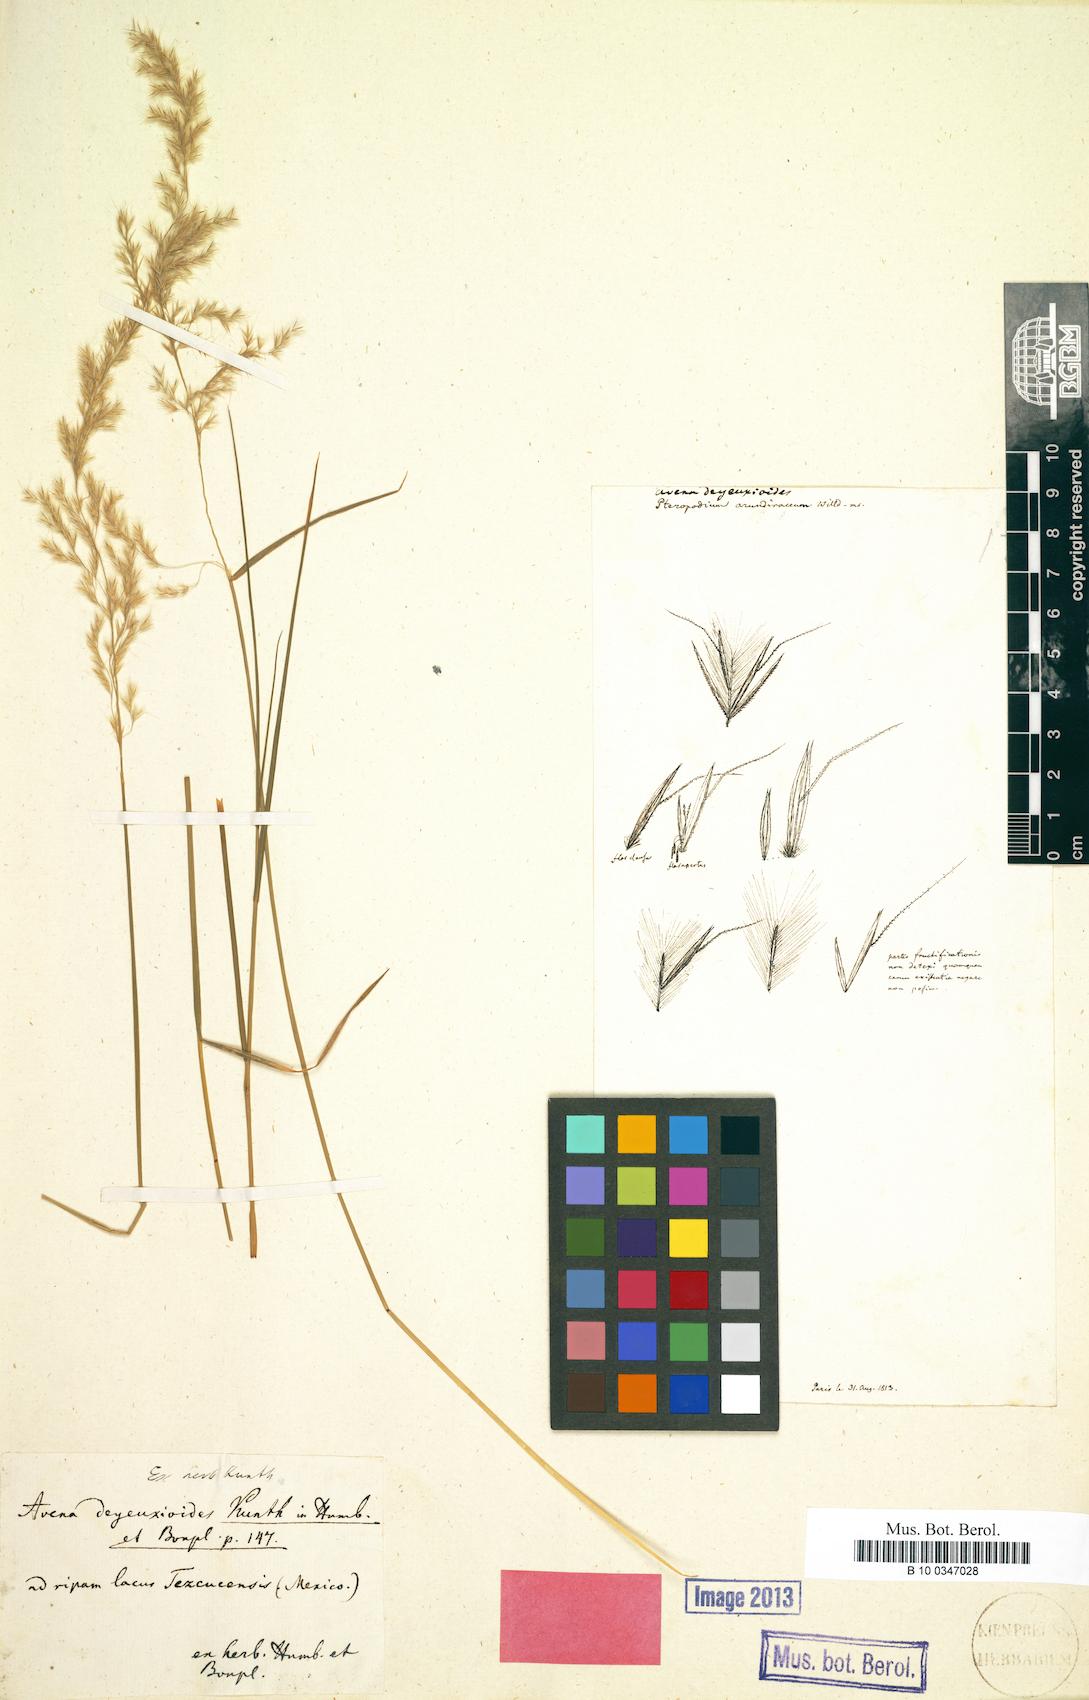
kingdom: Plantae
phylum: Tracheophyta
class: Liliopsida
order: Poales
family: Poaceae
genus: Peyritschia
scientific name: Peyritschia deyeuxioides
